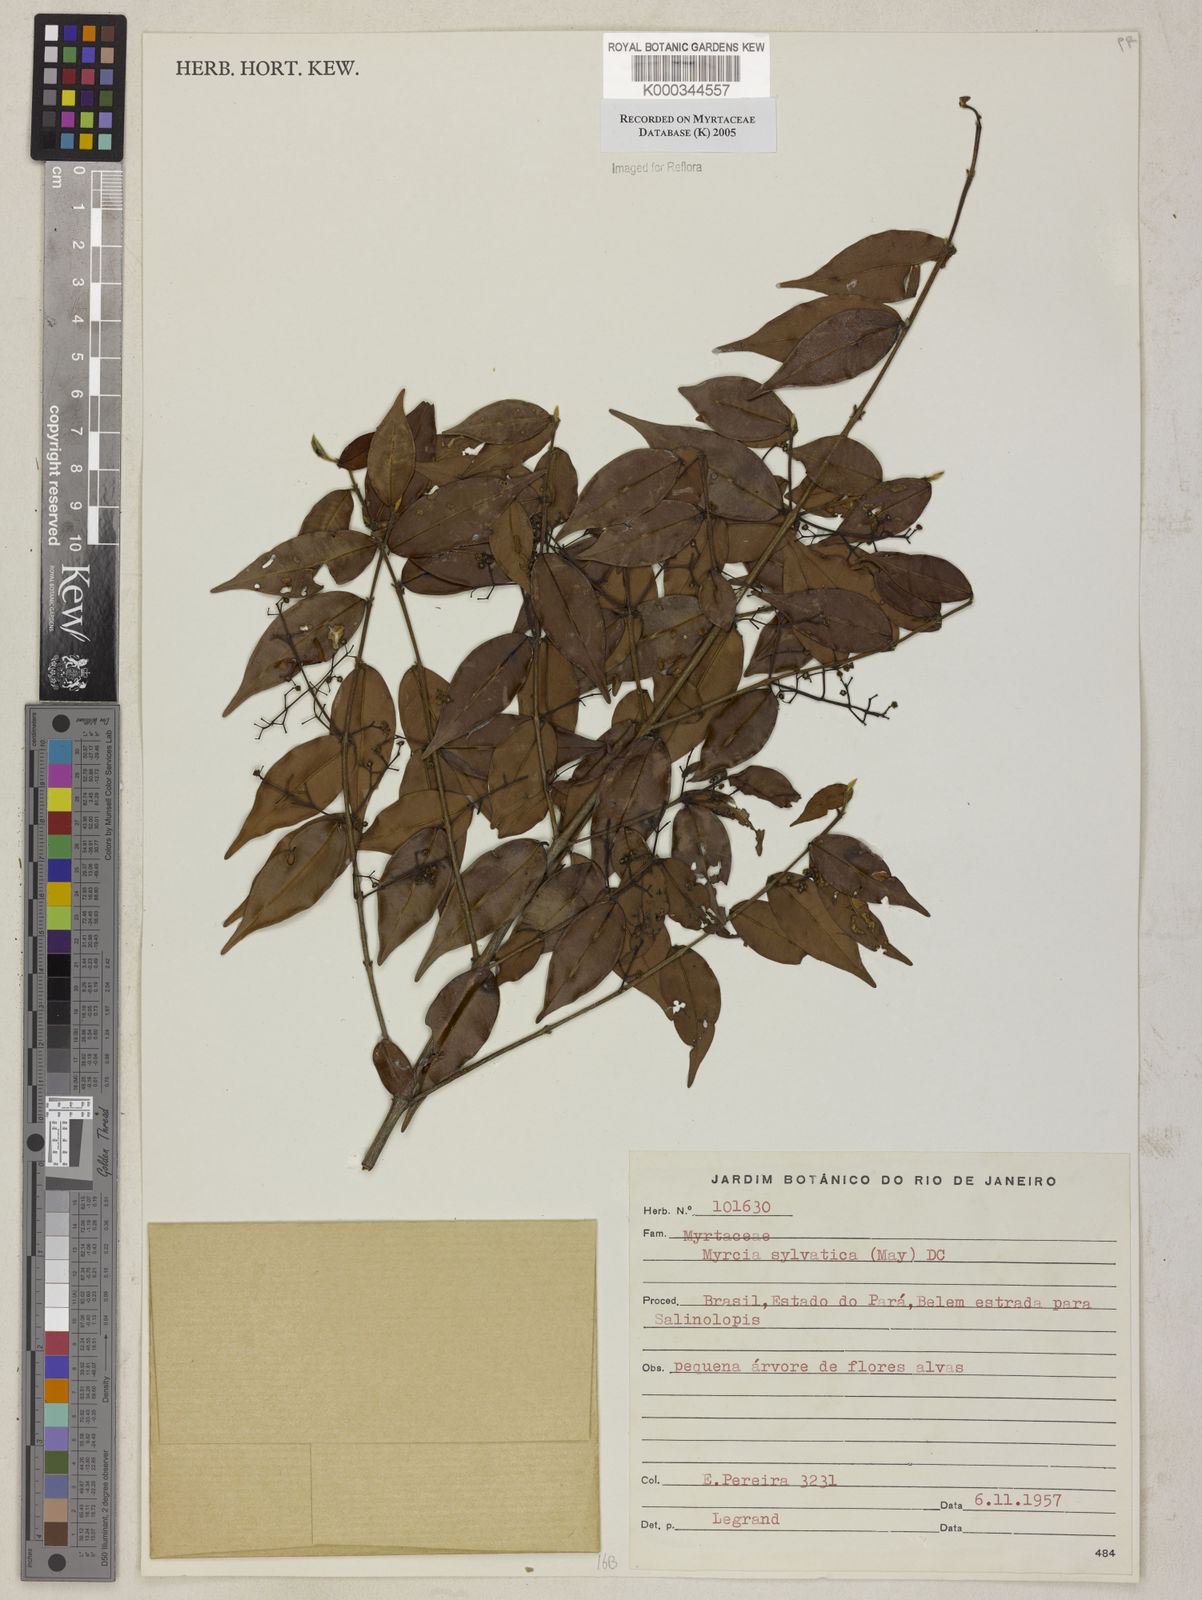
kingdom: Plantae
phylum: Tracheophyta
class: Magnoliopsida
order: Myrtales
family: Myrtaceae
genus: Myrcia
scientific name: Myrcia sylvatica
